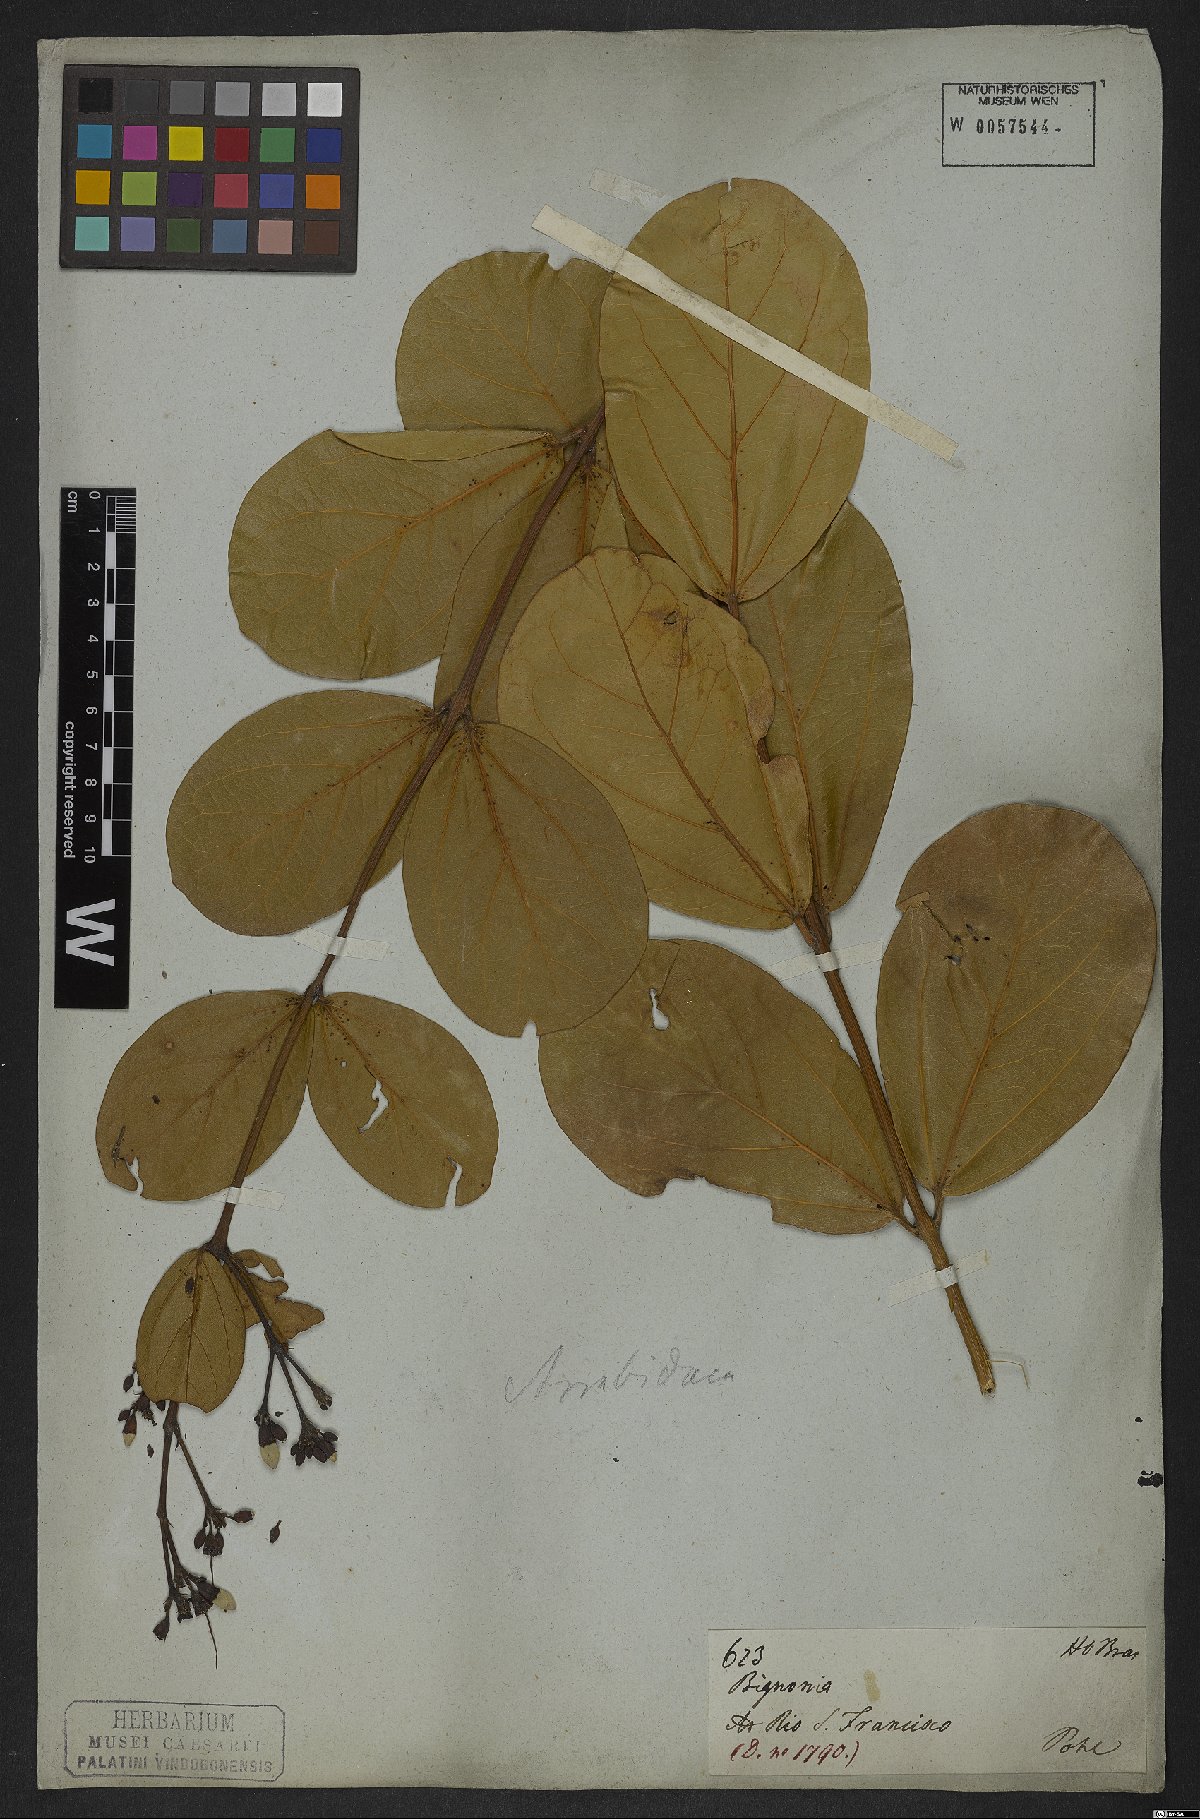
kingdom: Plantae
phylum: Tracheophyta
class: Magnoliopsida
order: Rosales
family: Rhamnaceae
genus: Arrabidaea
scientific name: Arrabidaea
